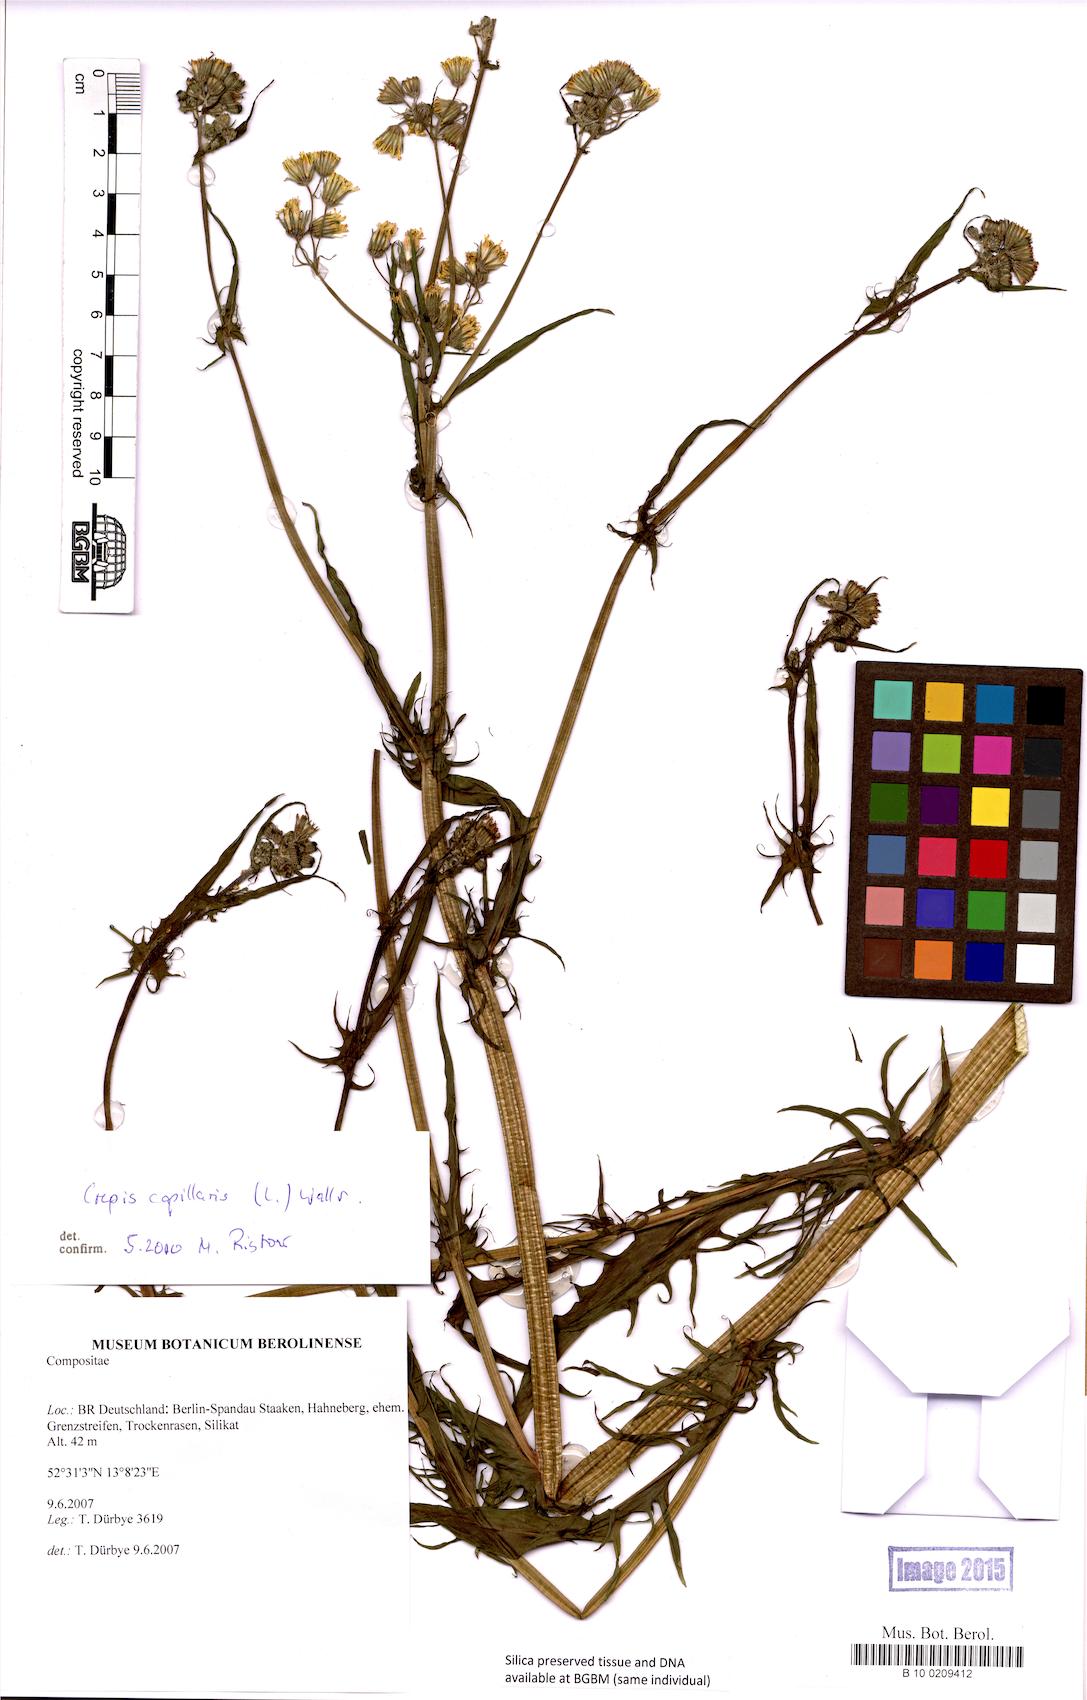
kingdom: Plantae
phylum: Tracheophyta
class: Magnoliopsida
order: Asterales
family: Asteraceae
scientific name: Asteraceae
